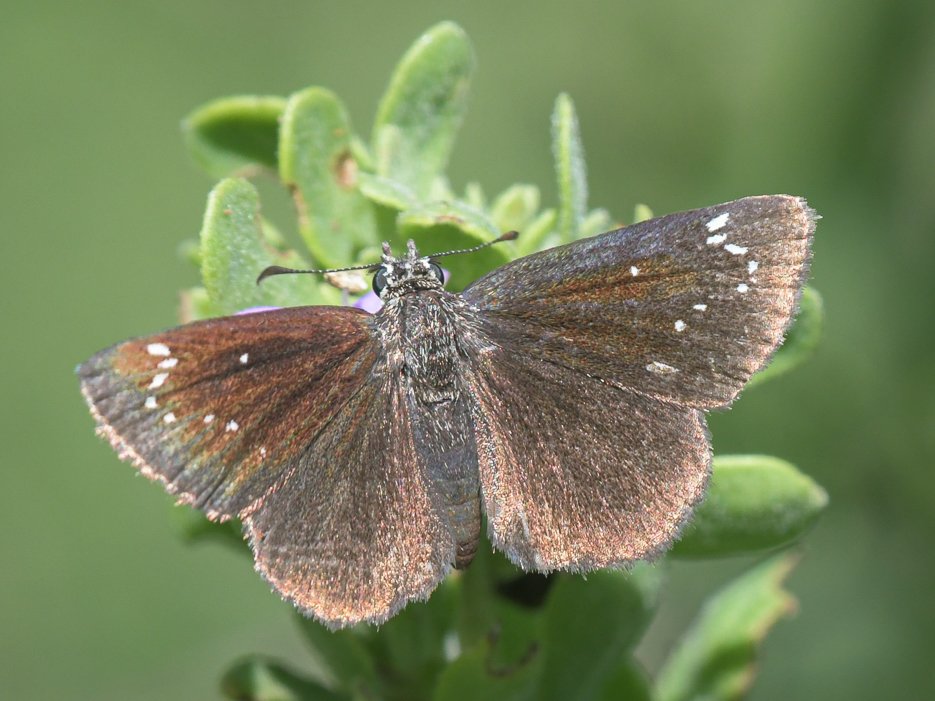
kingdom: Animalia
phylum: Arthropoda
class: Insecta
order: Lepidoptera
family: Hesperiidae
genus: Pholisora
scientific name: Pholisora catullus
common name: Common Sootywing
